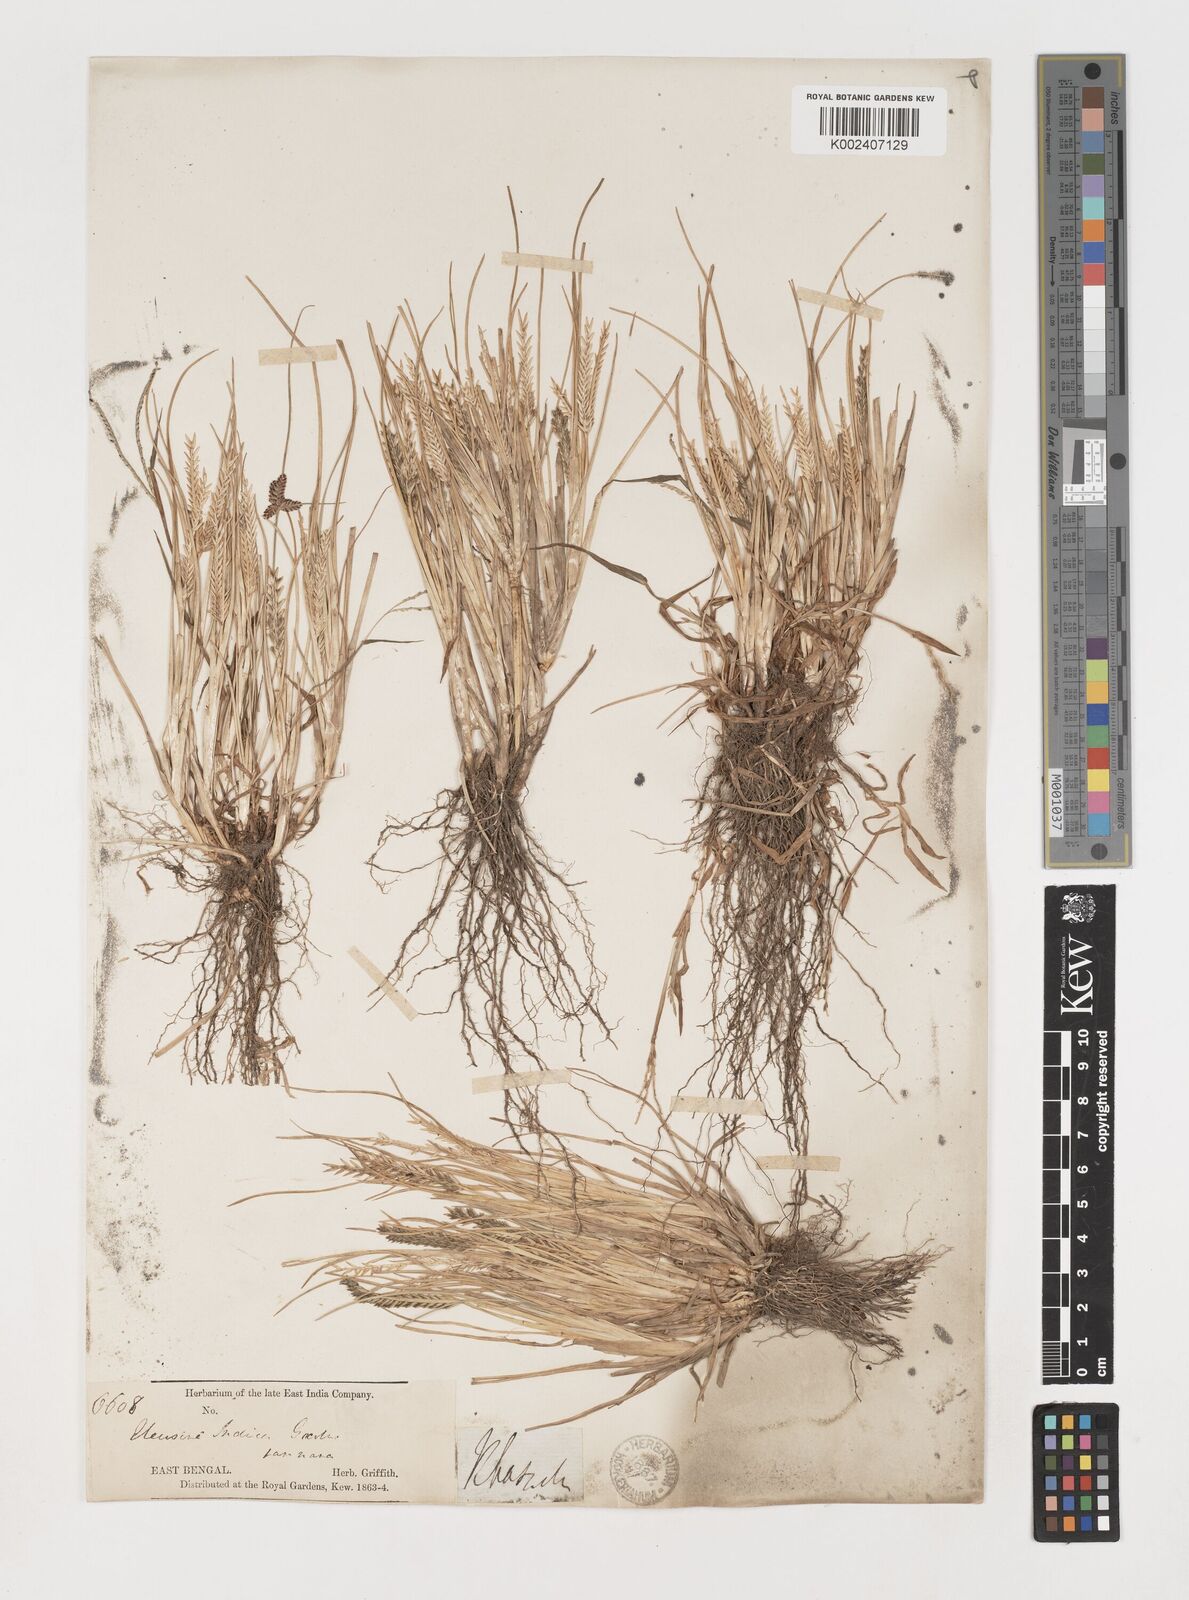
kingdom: Plantae
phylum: Tracheophyta
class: Liliopsida
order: Poales
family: Poaceae
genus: Eleusine
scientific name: Eleusine indica
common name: Yard-grass
